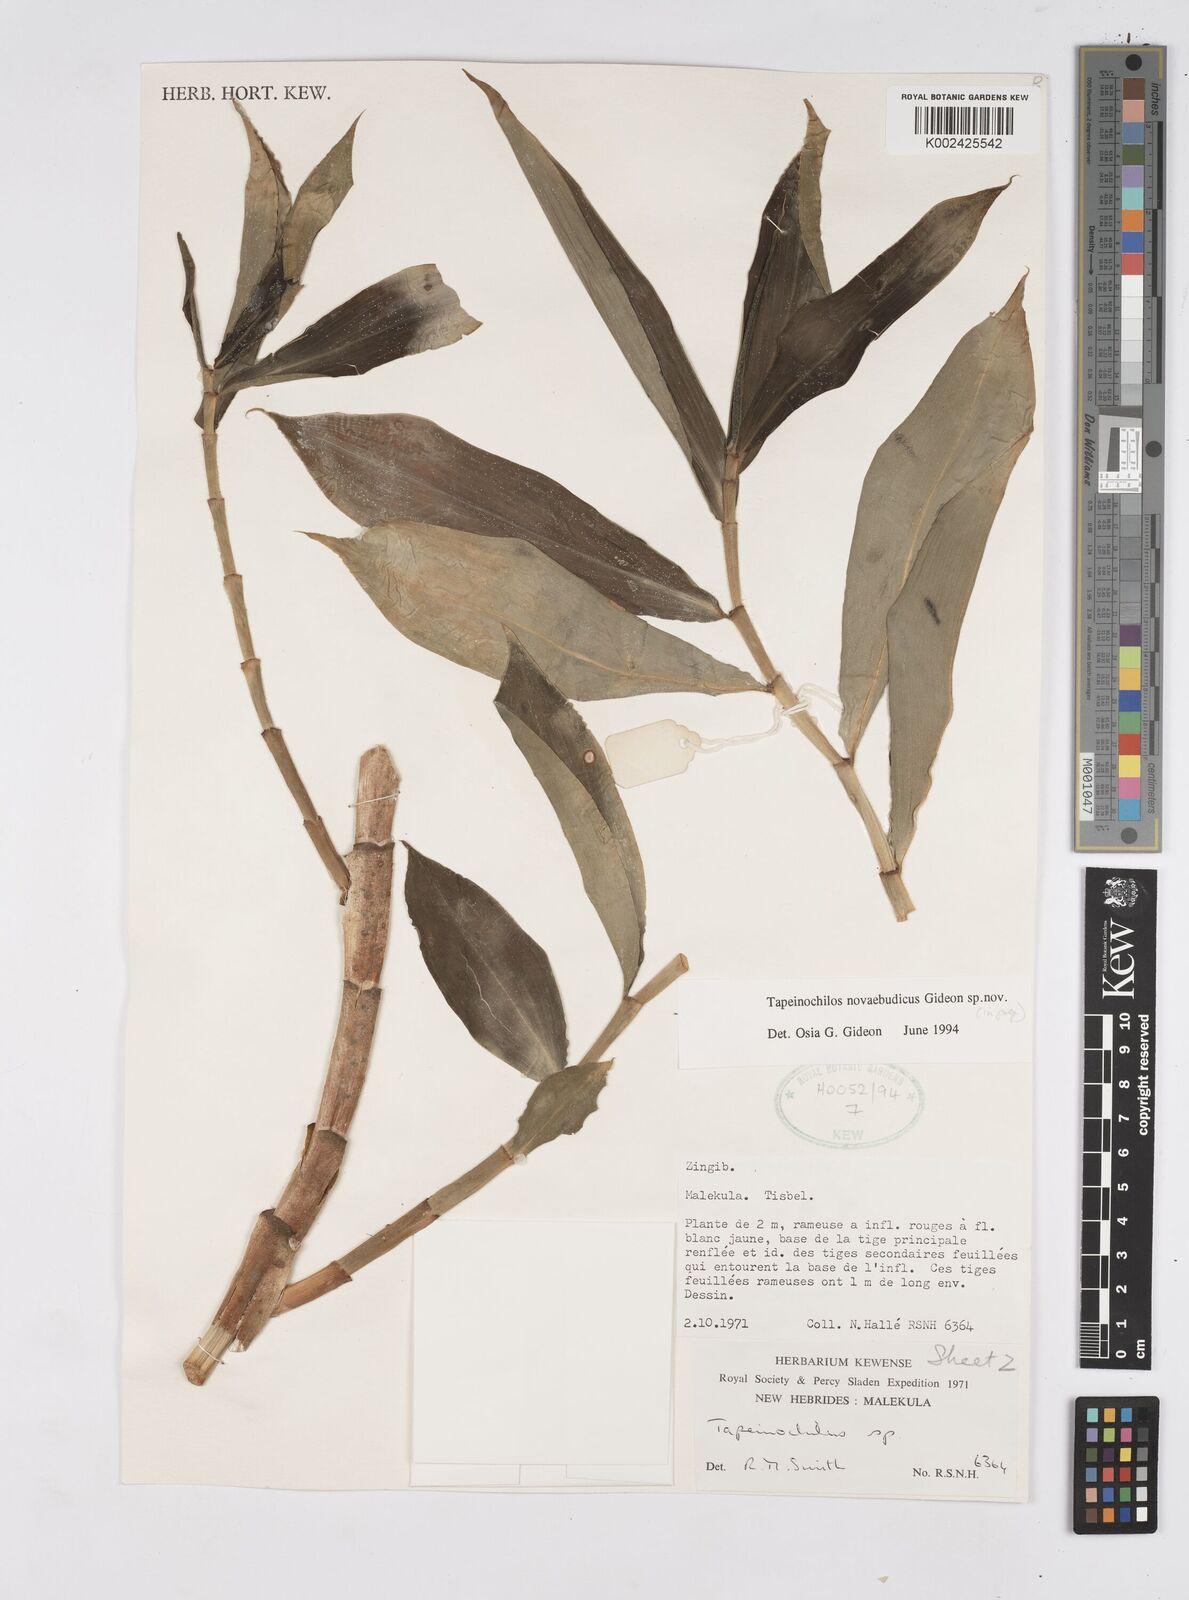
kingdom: Plantae
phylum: Tracheophyta
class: Liliopsida
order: Zingiberales
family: Costaceae
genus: Tapeinochilos
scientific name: Tapeinochilos
